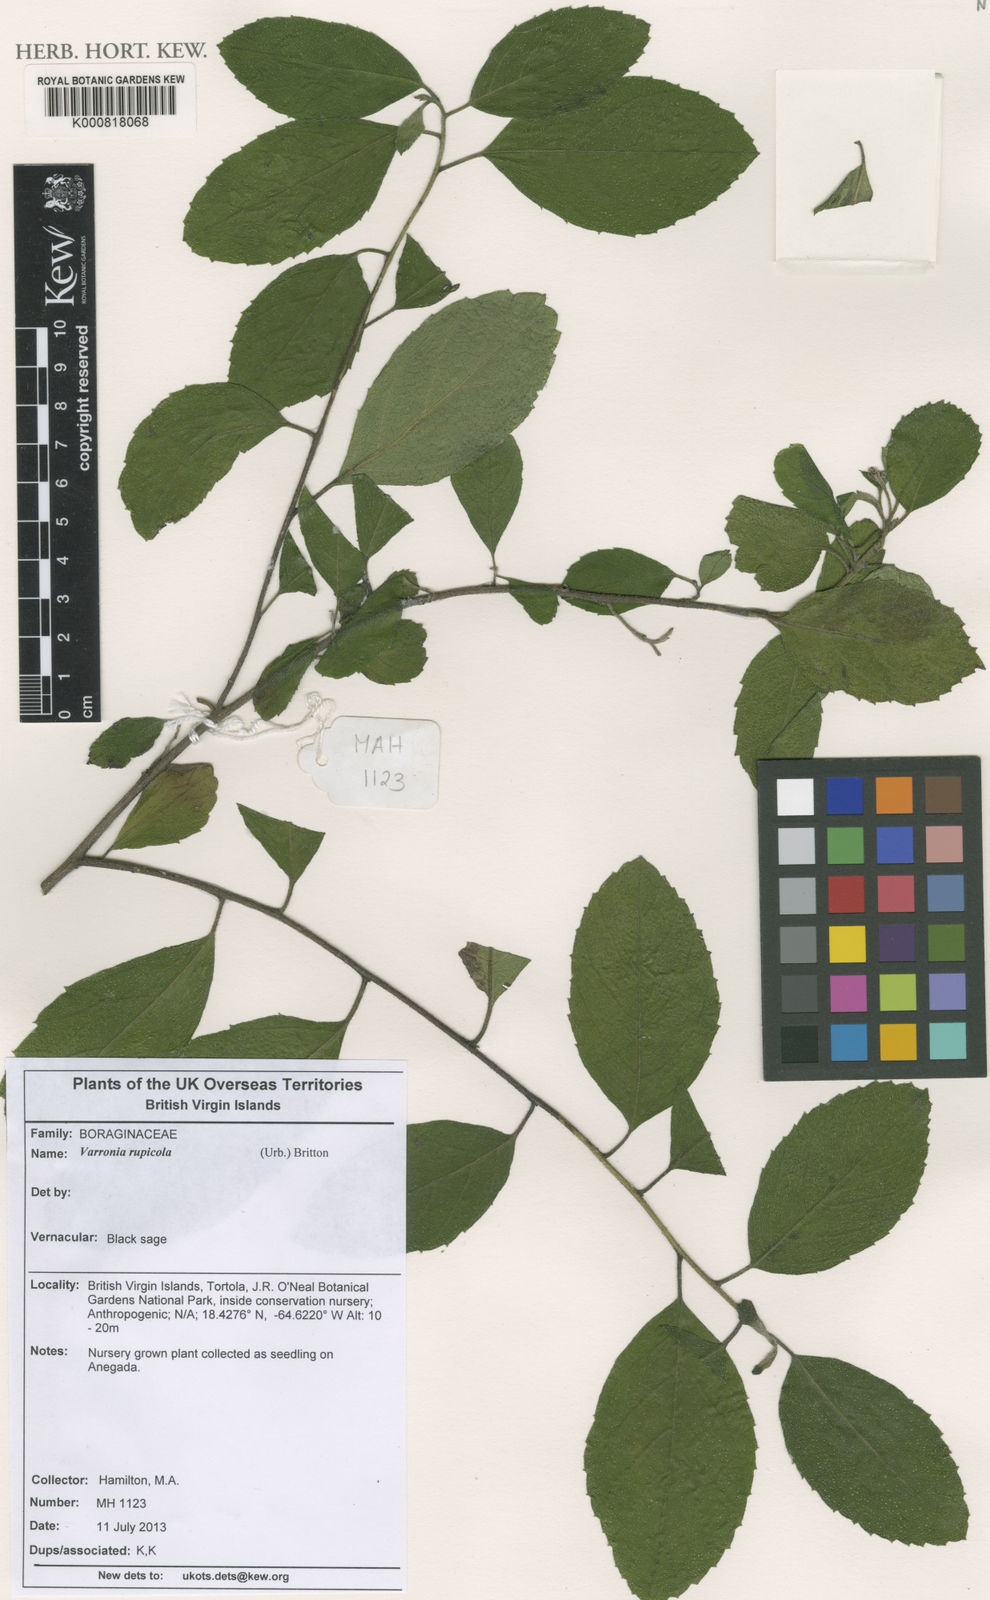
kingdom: Plantae
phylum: Tracheophyta
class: Magnoliopsida
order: Boraginales
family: Cordiaceae
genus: Varronia
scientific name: Varronia rupicola
